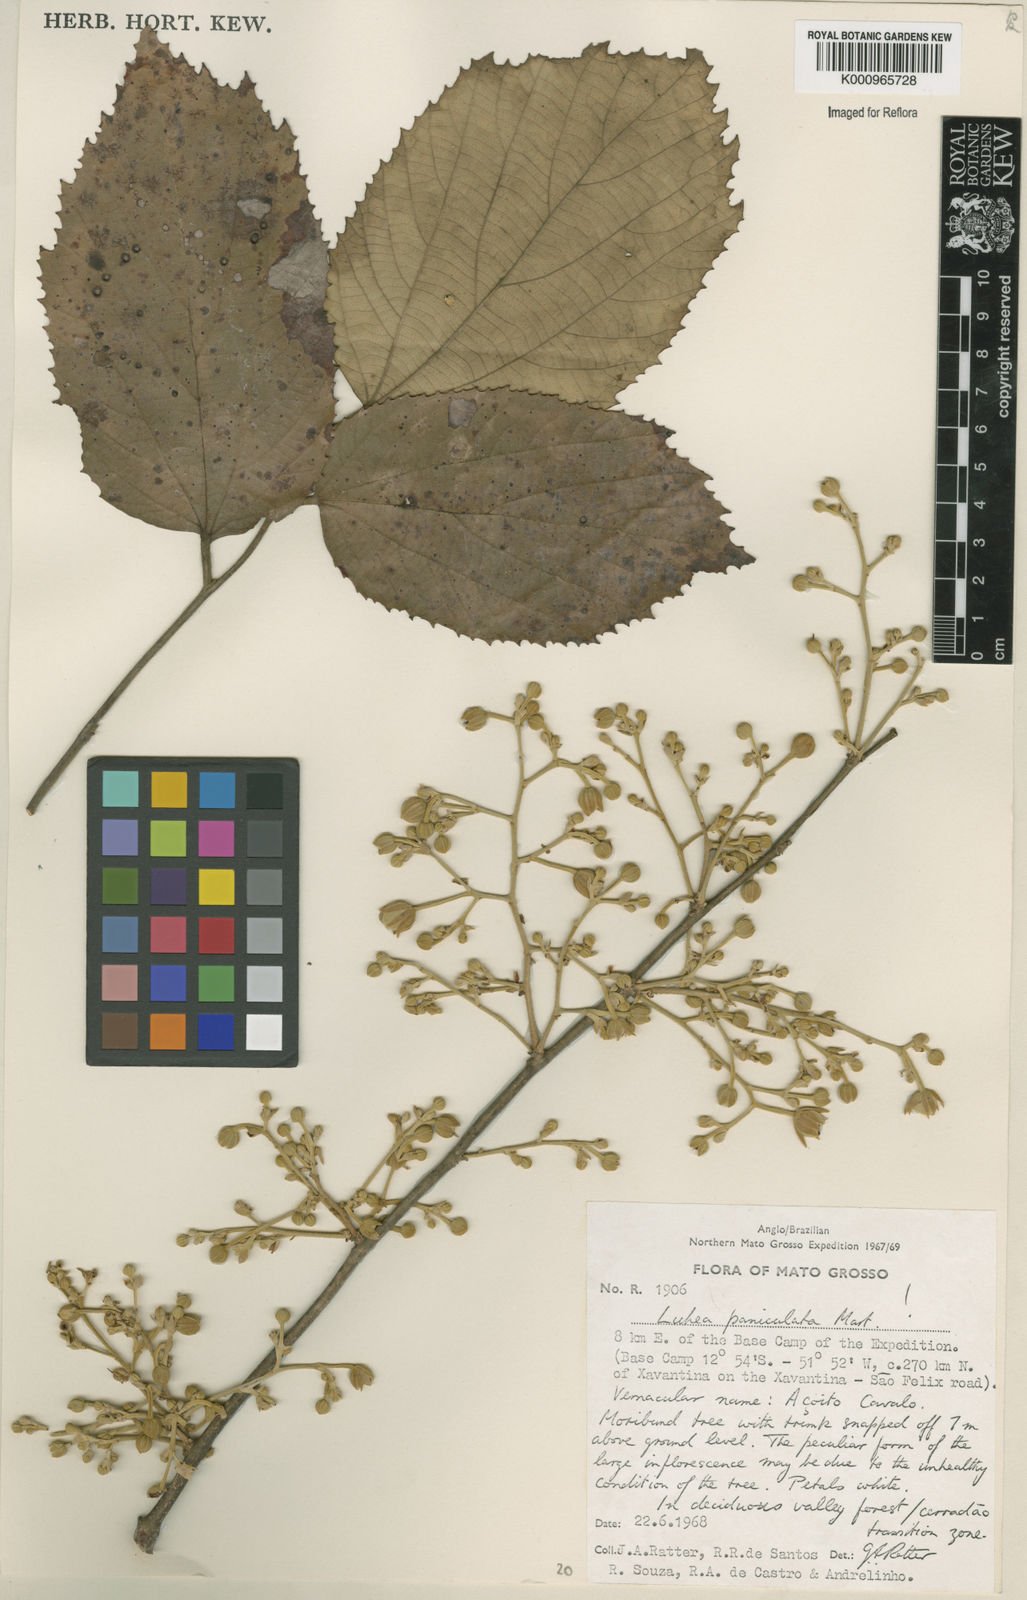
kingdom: Plantae
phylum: Tracheophyta
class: Magnoliopsida
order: Malvales
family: Malvaceae
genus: Luehea
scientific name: Luehea paniculata
